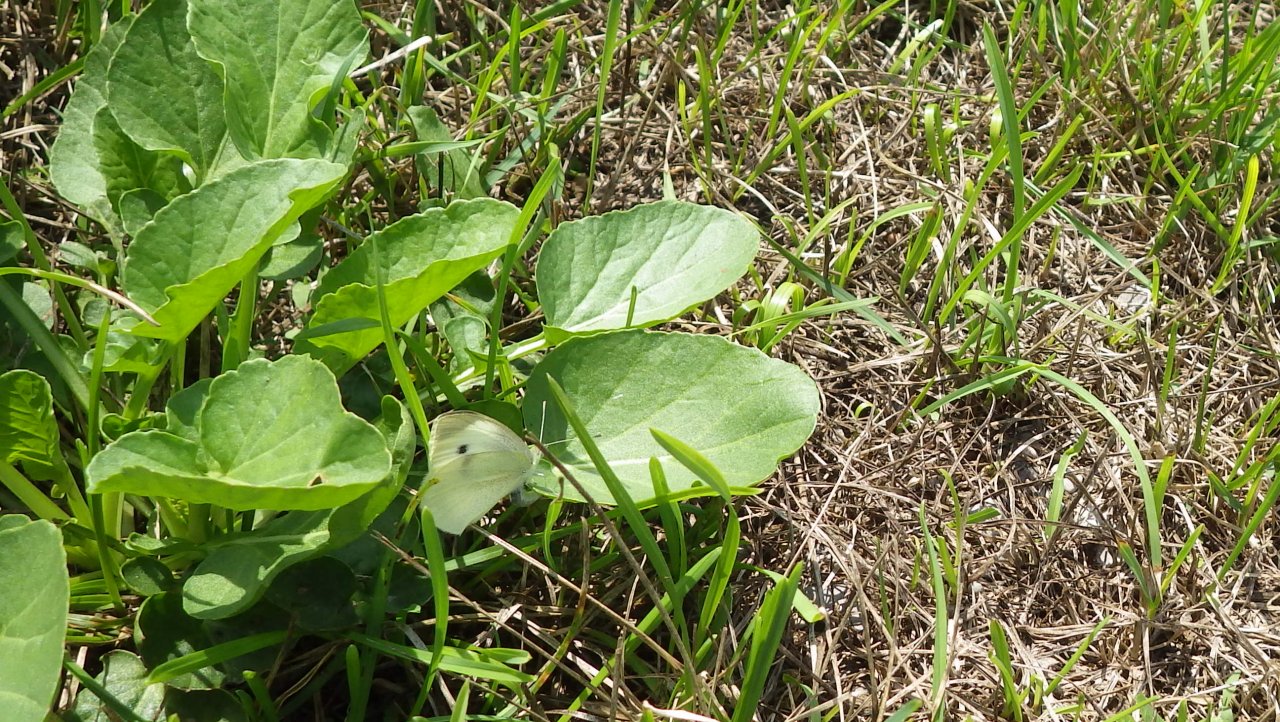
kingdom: Animalia
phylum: Arthropoda
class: Insecta
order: Lepidoptera
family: Pieridae
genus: Pieris
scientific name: Pieris rapae
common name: Cabbage White
